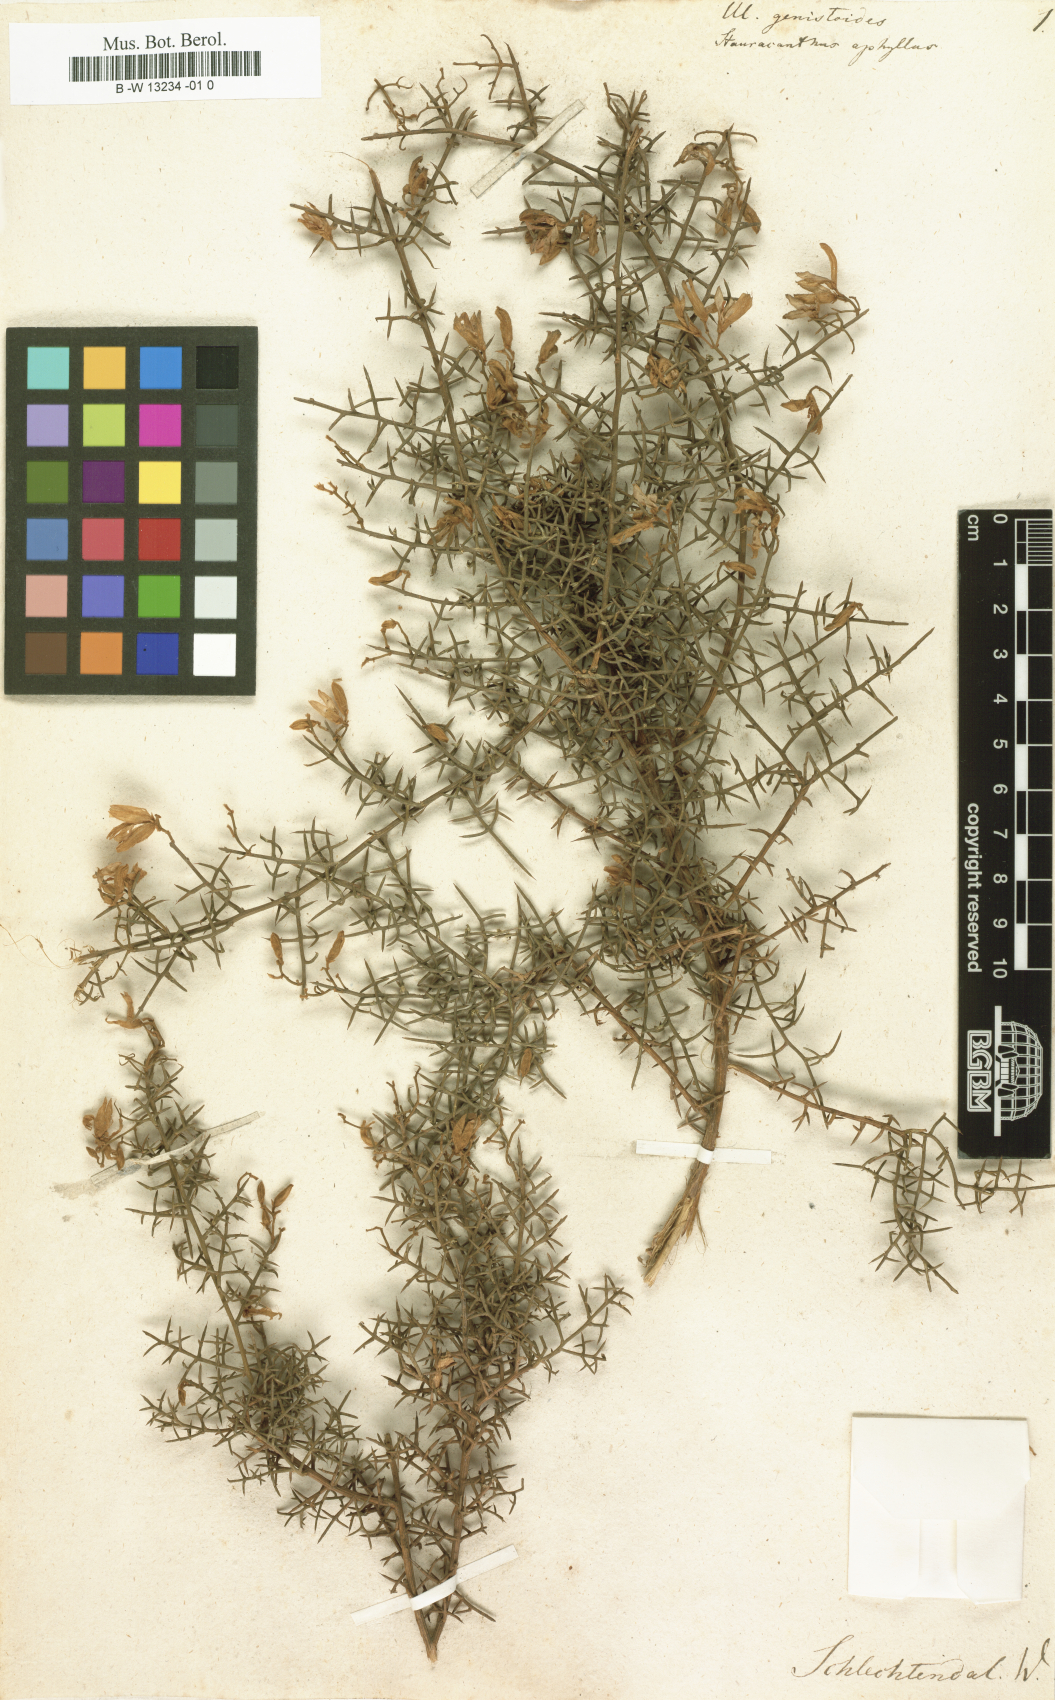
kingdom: Plantae
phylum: Tracheophyta
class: Magnoliopsida
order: Fabales
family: Fabaceae
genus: Ulex
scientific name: Ulex genistoides
